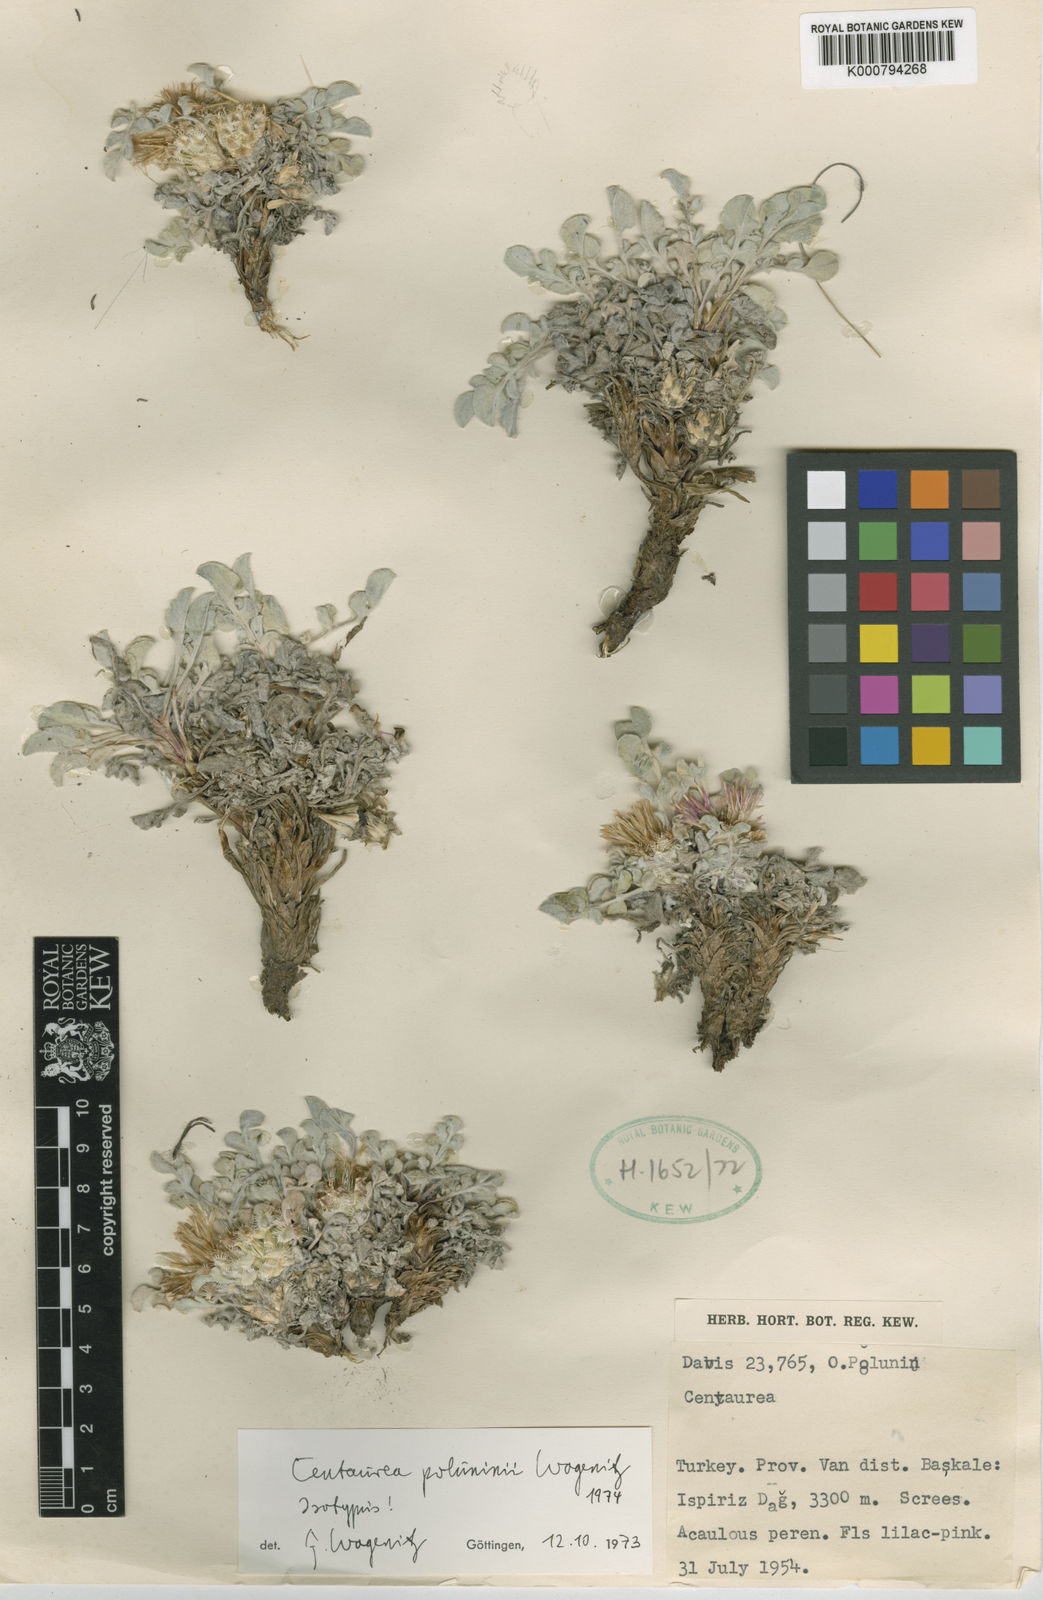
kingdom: Plantae
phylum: Tracheophyta
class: Magnoliopsida
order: Asterales
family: Asteraceae
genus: Psephellus
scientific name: Psephellus poluninii
